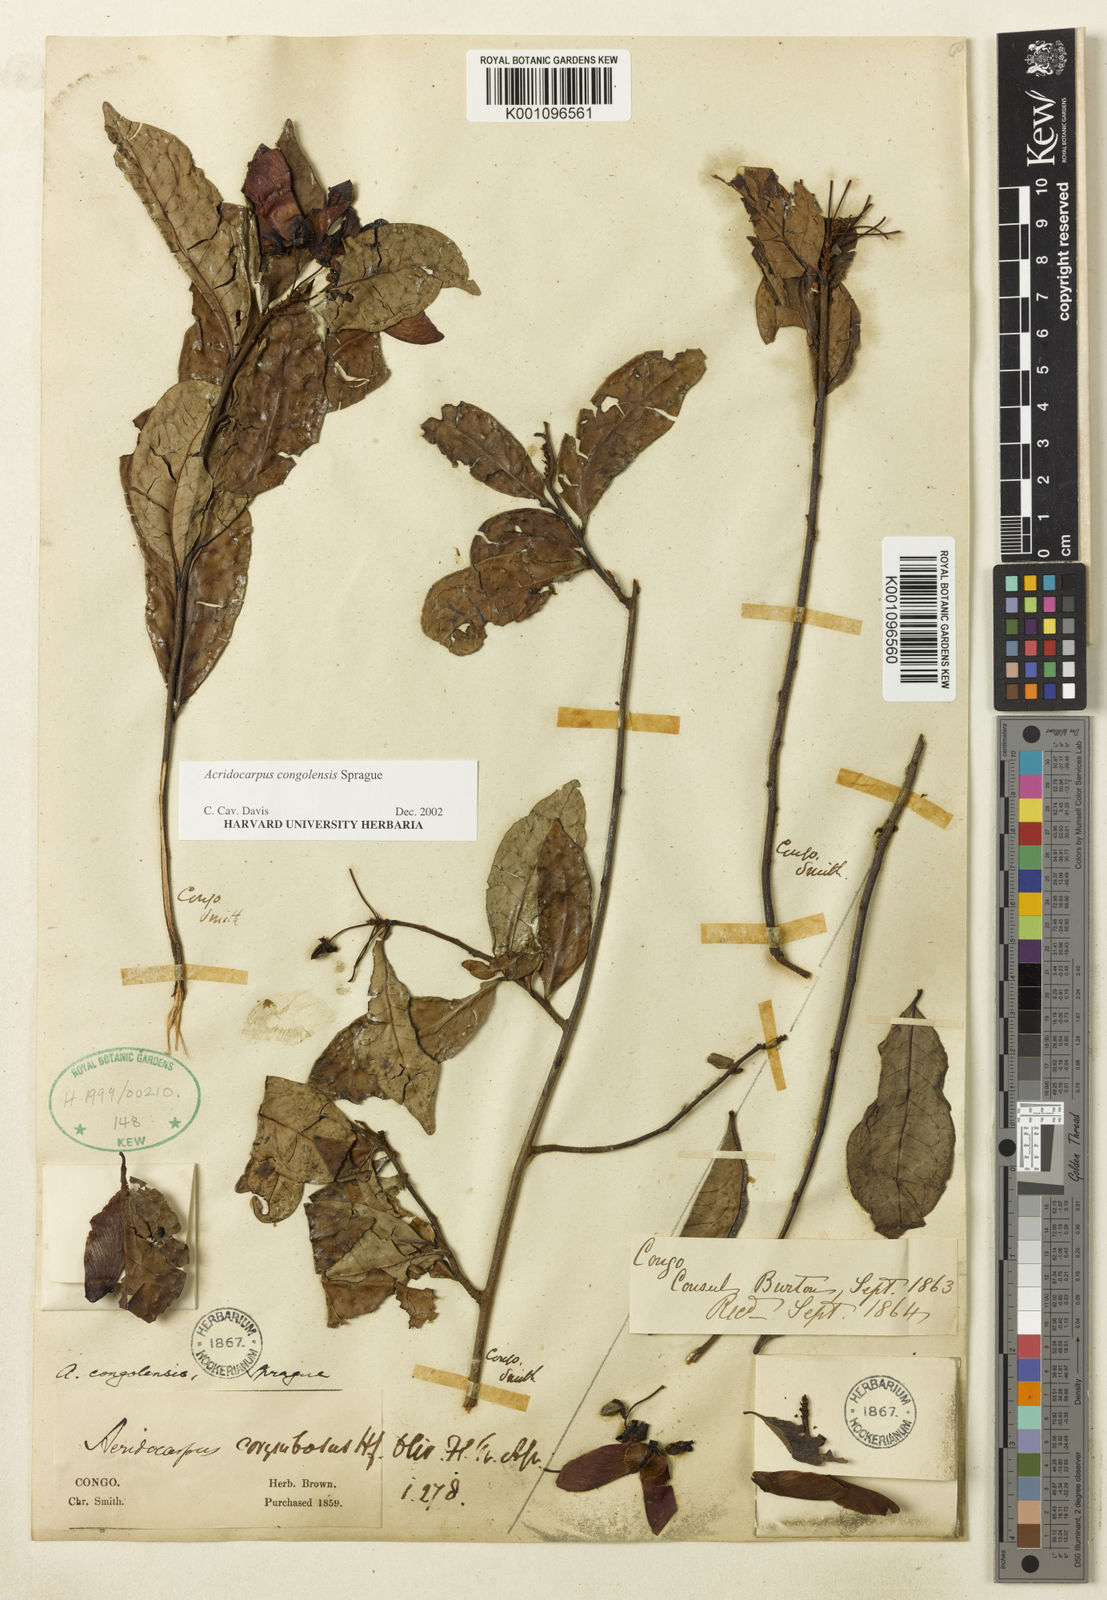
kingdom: Plantae
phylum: Tracheophyta
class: Magnoliopsida
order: Malpighiales
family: Malpighiaceae
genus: Acridocarpus
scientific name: Acridocarpus congolensis
